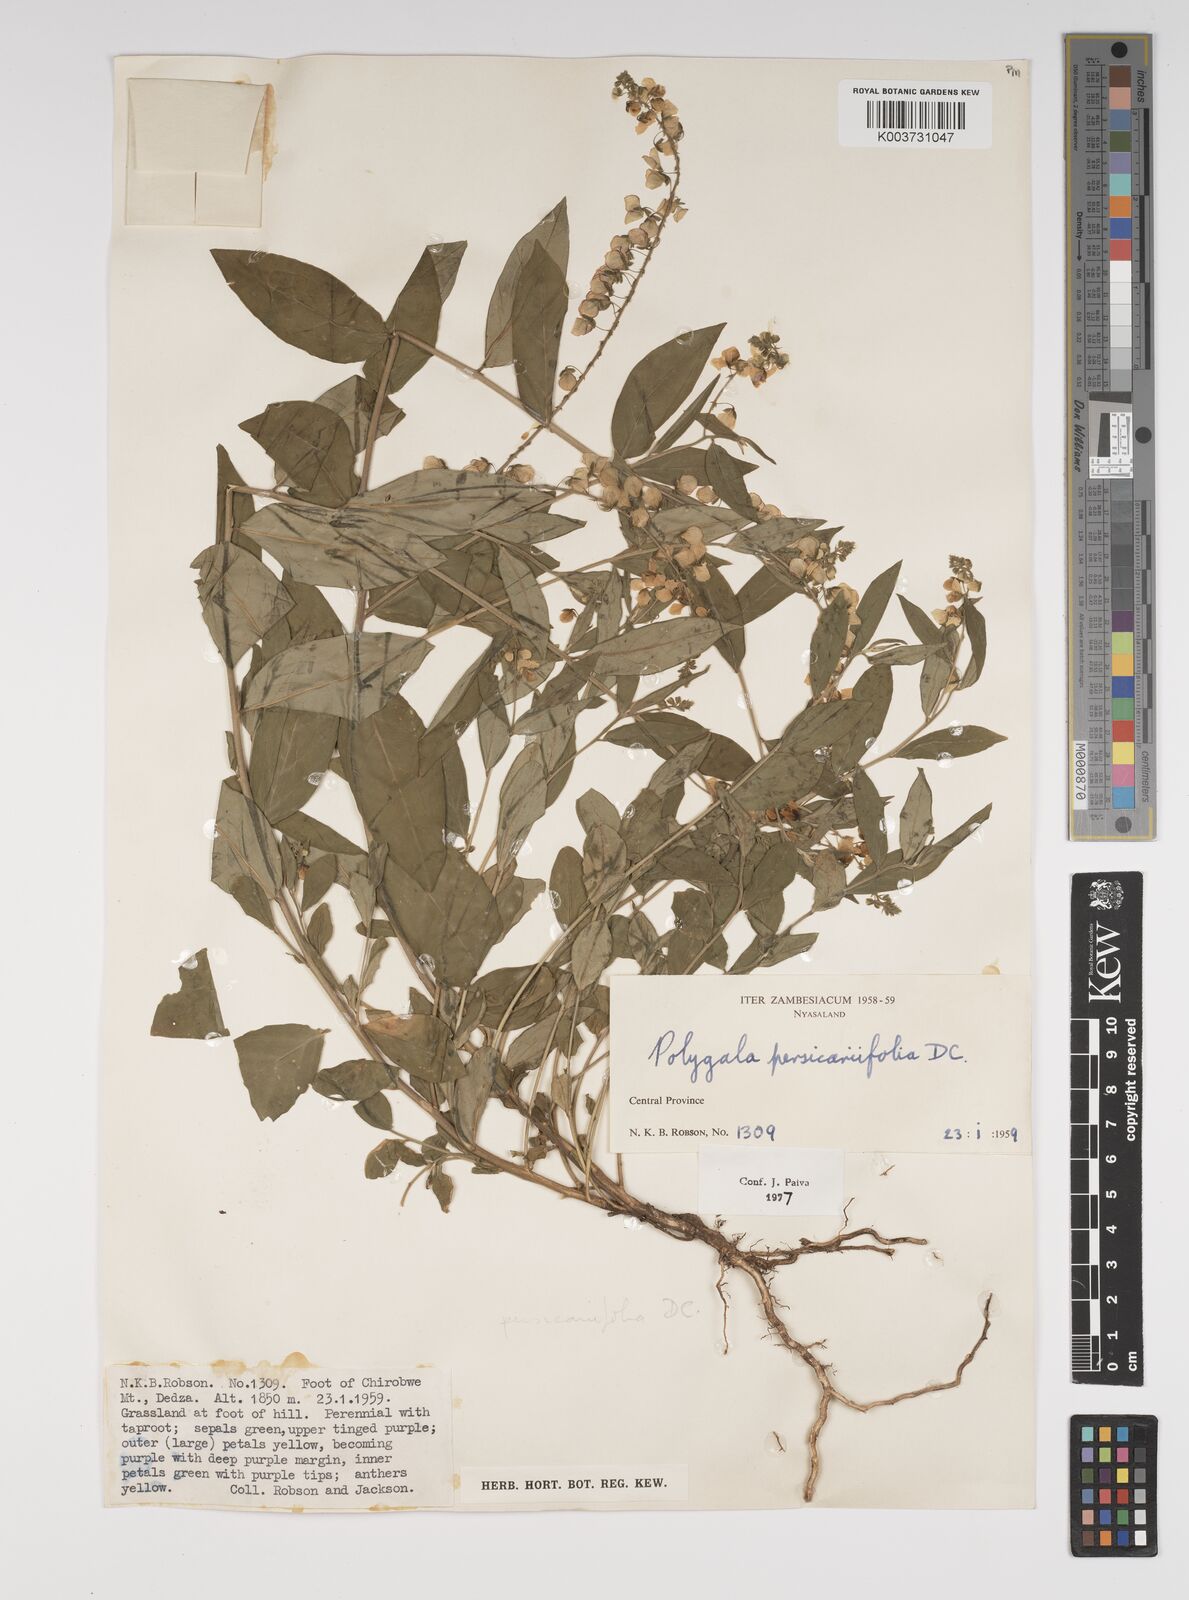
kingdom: Plantae
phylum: Tracheophyta
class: Magnoliopsida
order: Fabales
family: Polygalaceae
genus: Polygala
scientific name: Polygala persicariifolia
